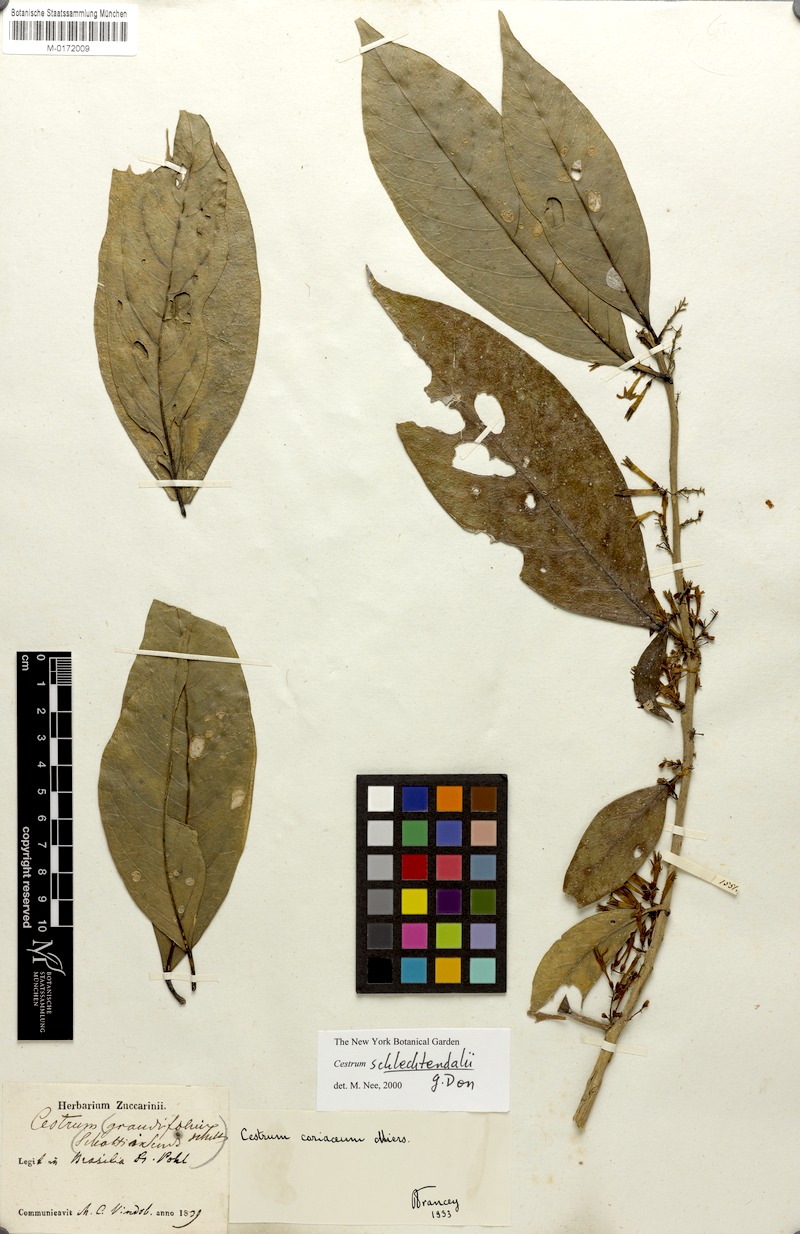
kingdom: Plantae
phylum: Tracheophyta
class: Magnoliopsida
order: Solanales
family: Solanaceae
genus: Cestrum
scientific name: Cestrum schlechtendalii
